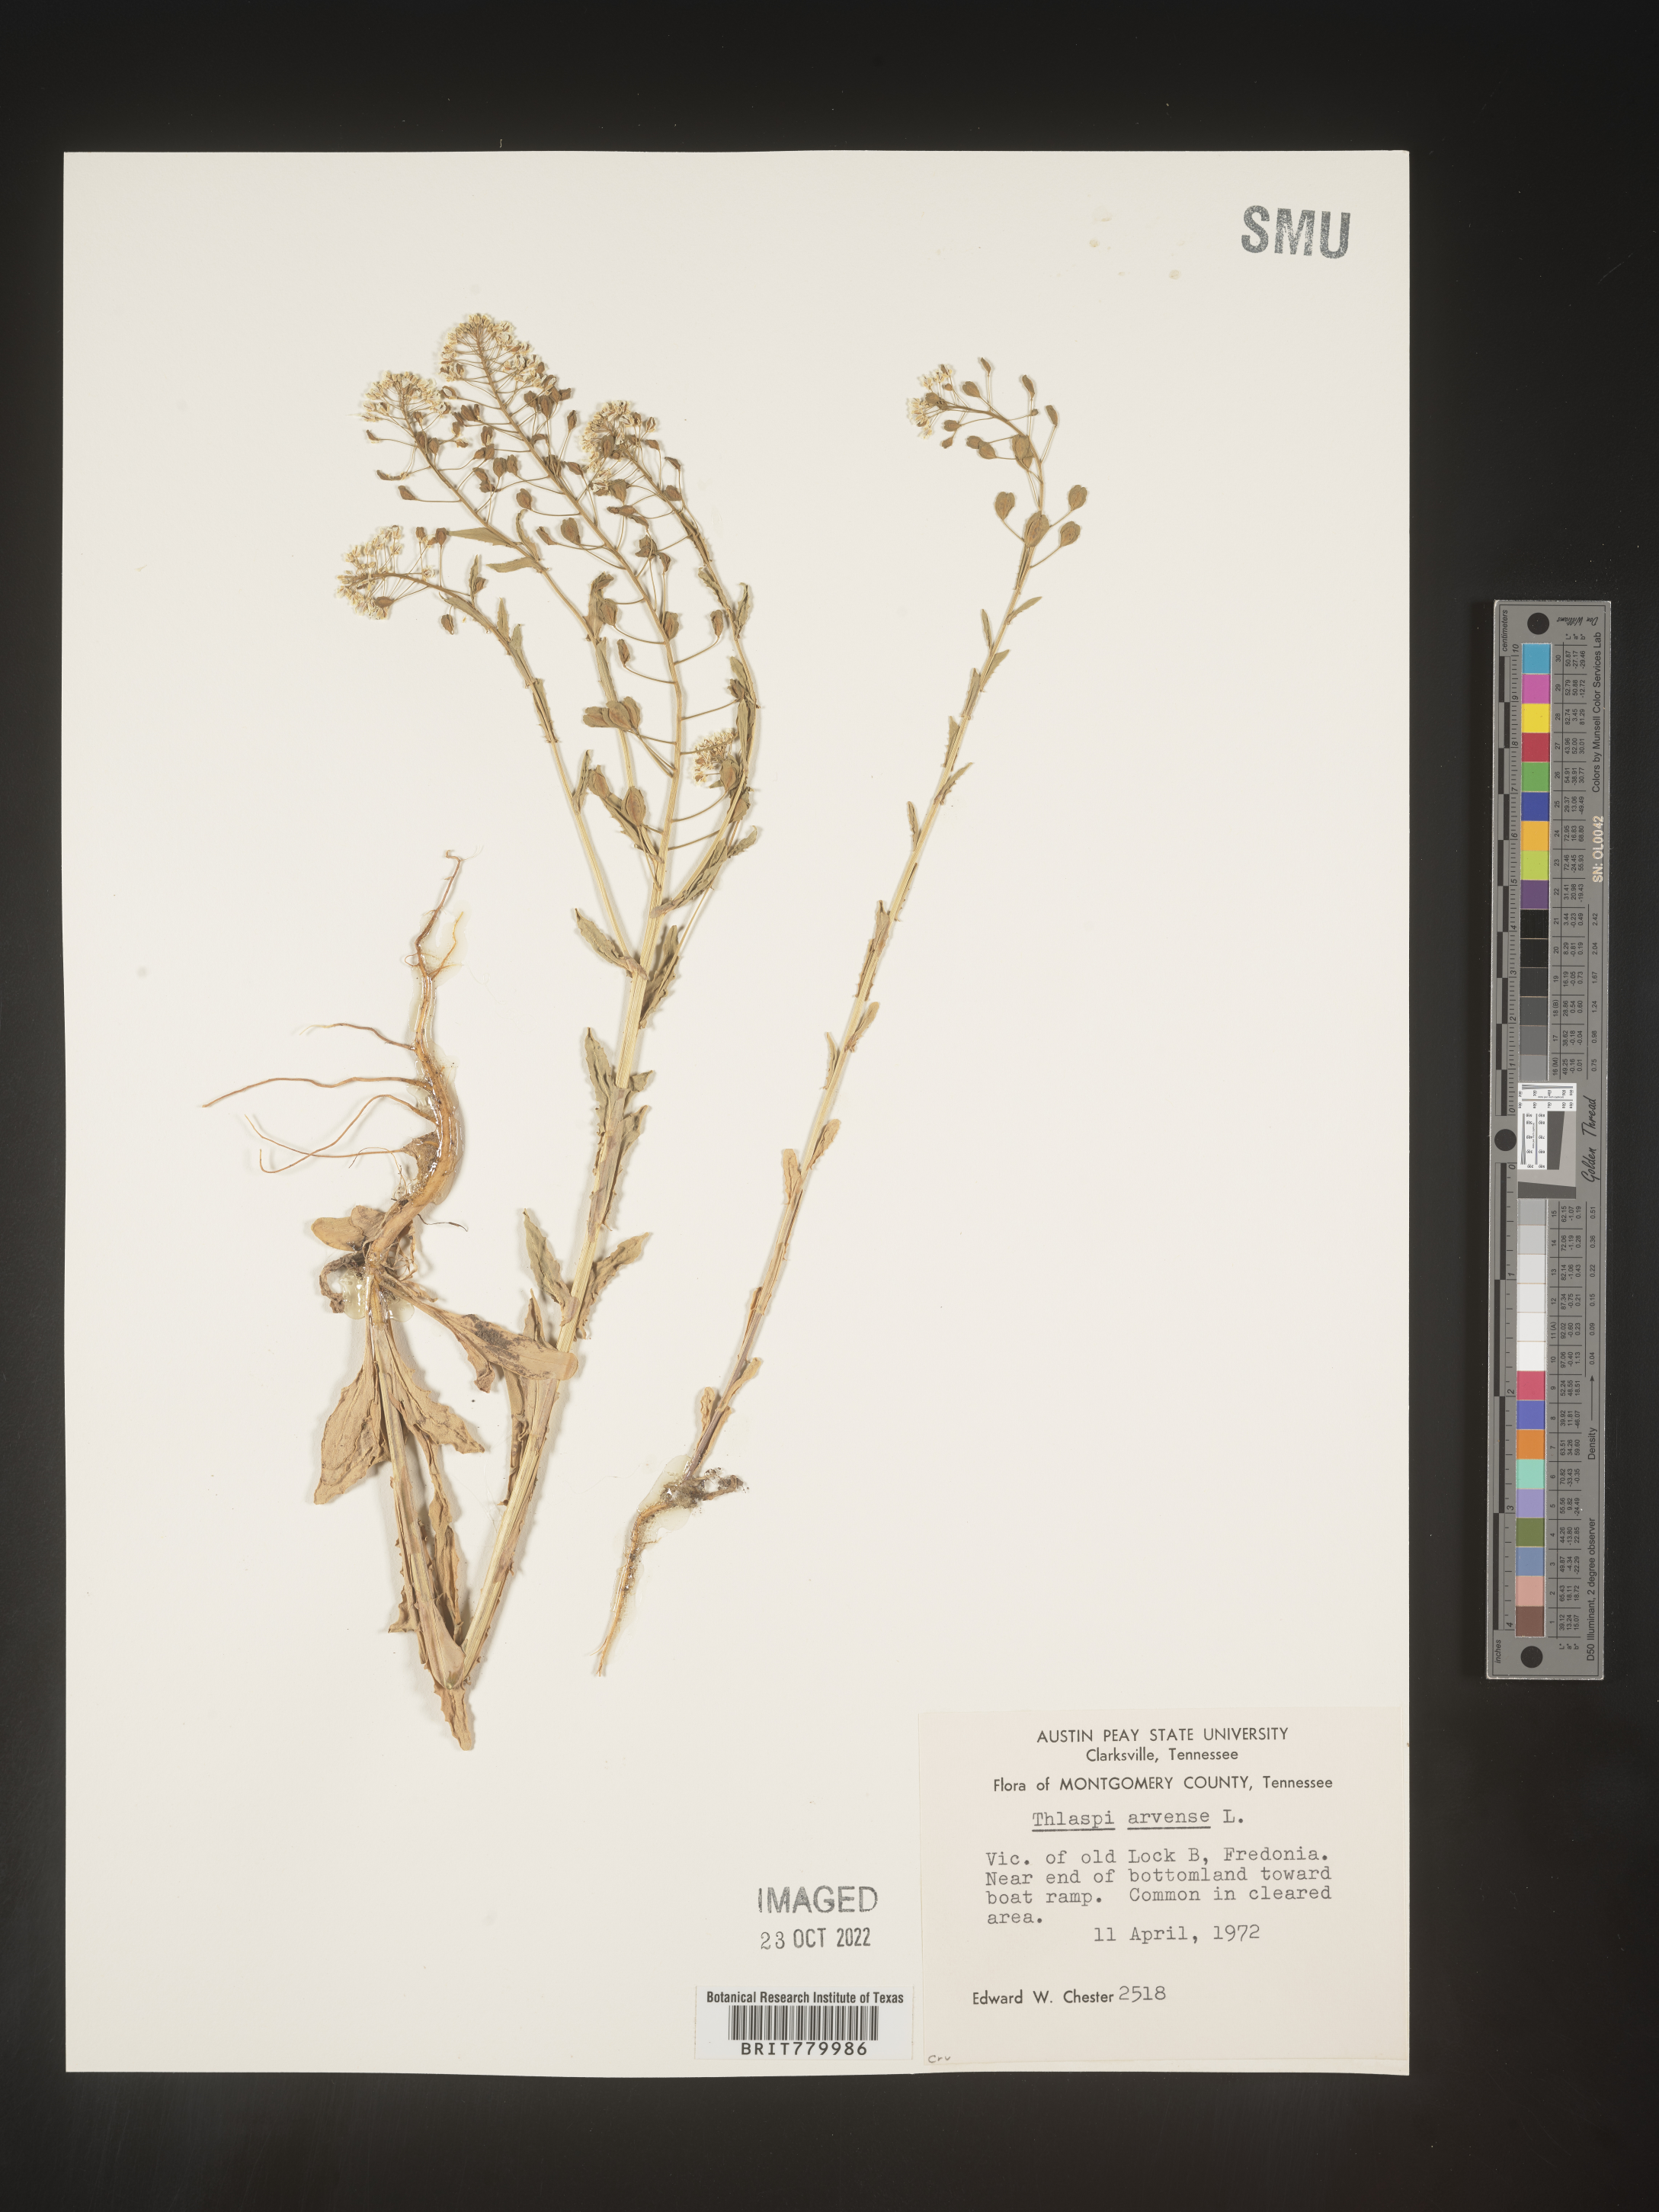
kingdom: Plantae
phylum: Tracheophyta
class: Magnoliopsida
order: Brassicales
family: Brassicaceae
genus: Thlaspi
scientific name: Thlaspi arvense
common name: Field pennycress
